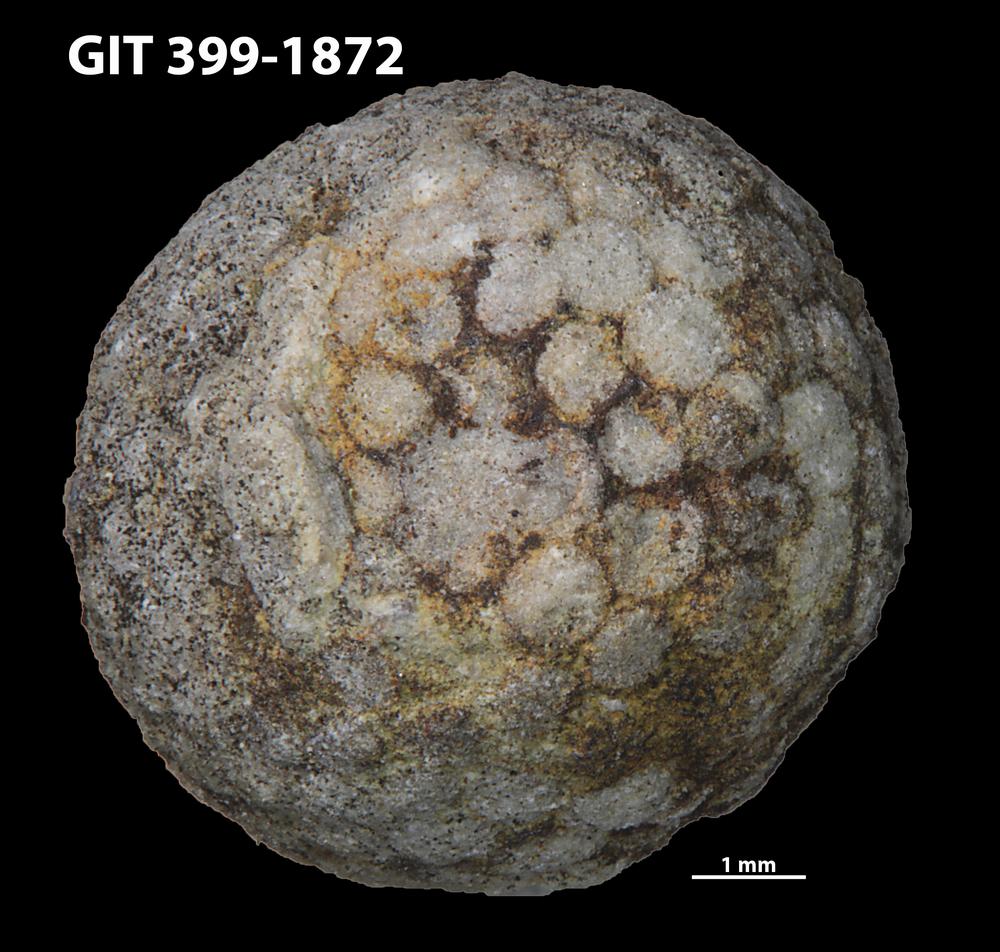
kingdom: Plantae
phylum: Chlorophyta
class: Ulvophyceae
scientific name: Ulvophyceae
